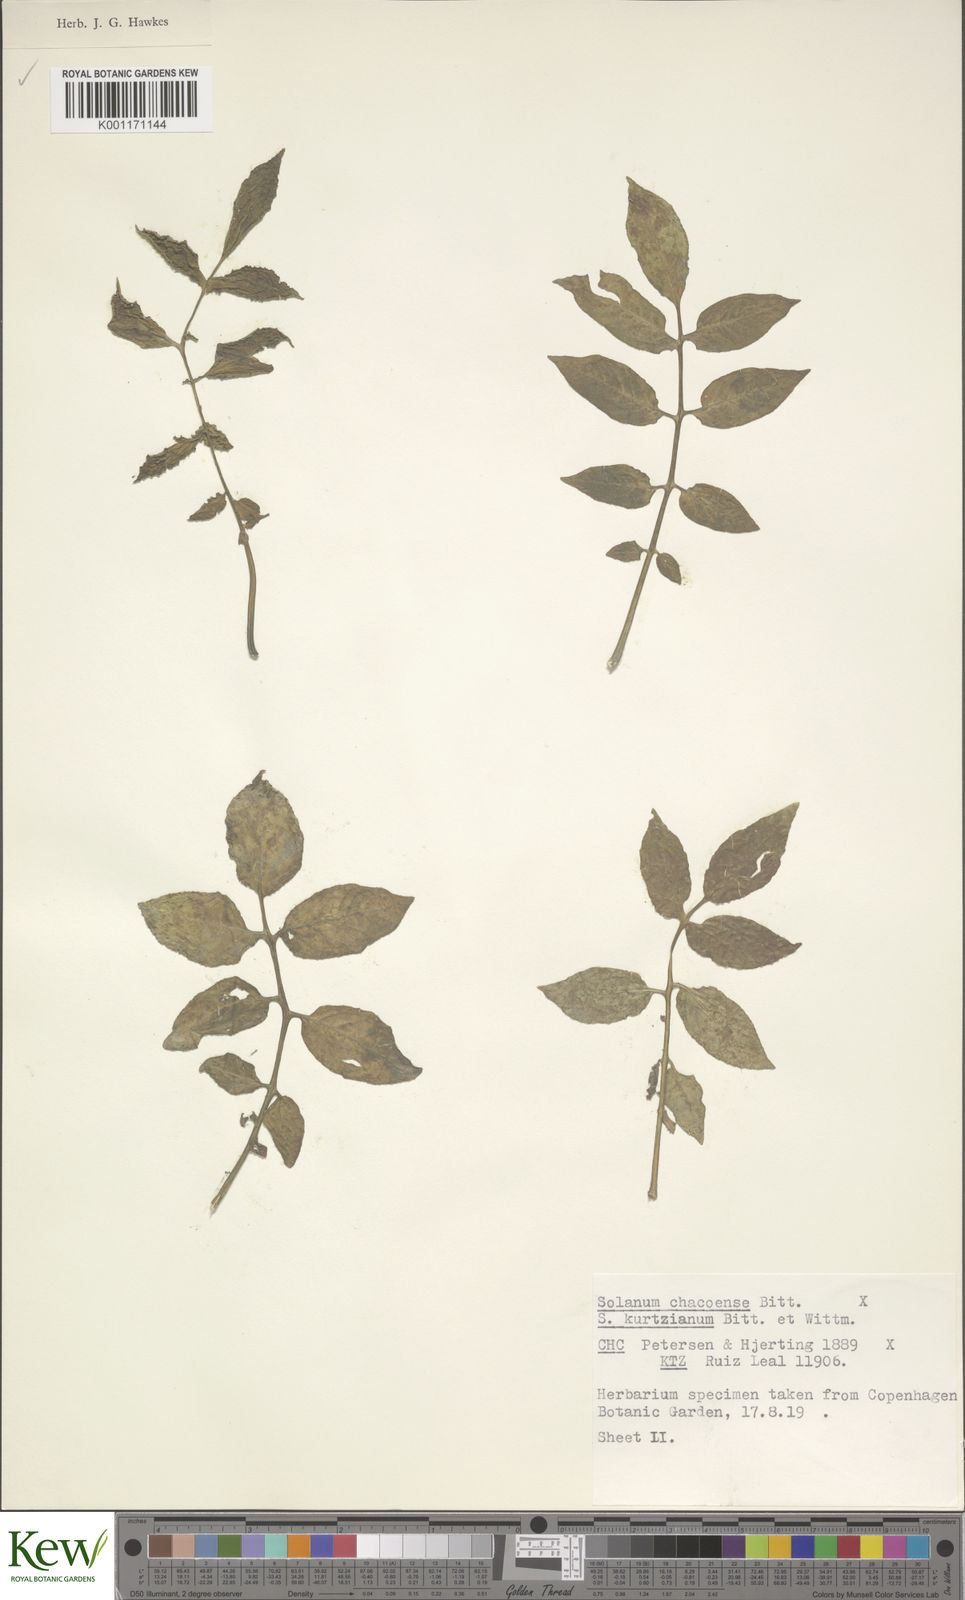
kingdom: Plantae
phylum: Tracheophyta
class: Magnoliopsida
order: Solanales
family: Solanaceae
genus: Solanum
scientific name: Solanum chacoense
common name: Chaco potato
